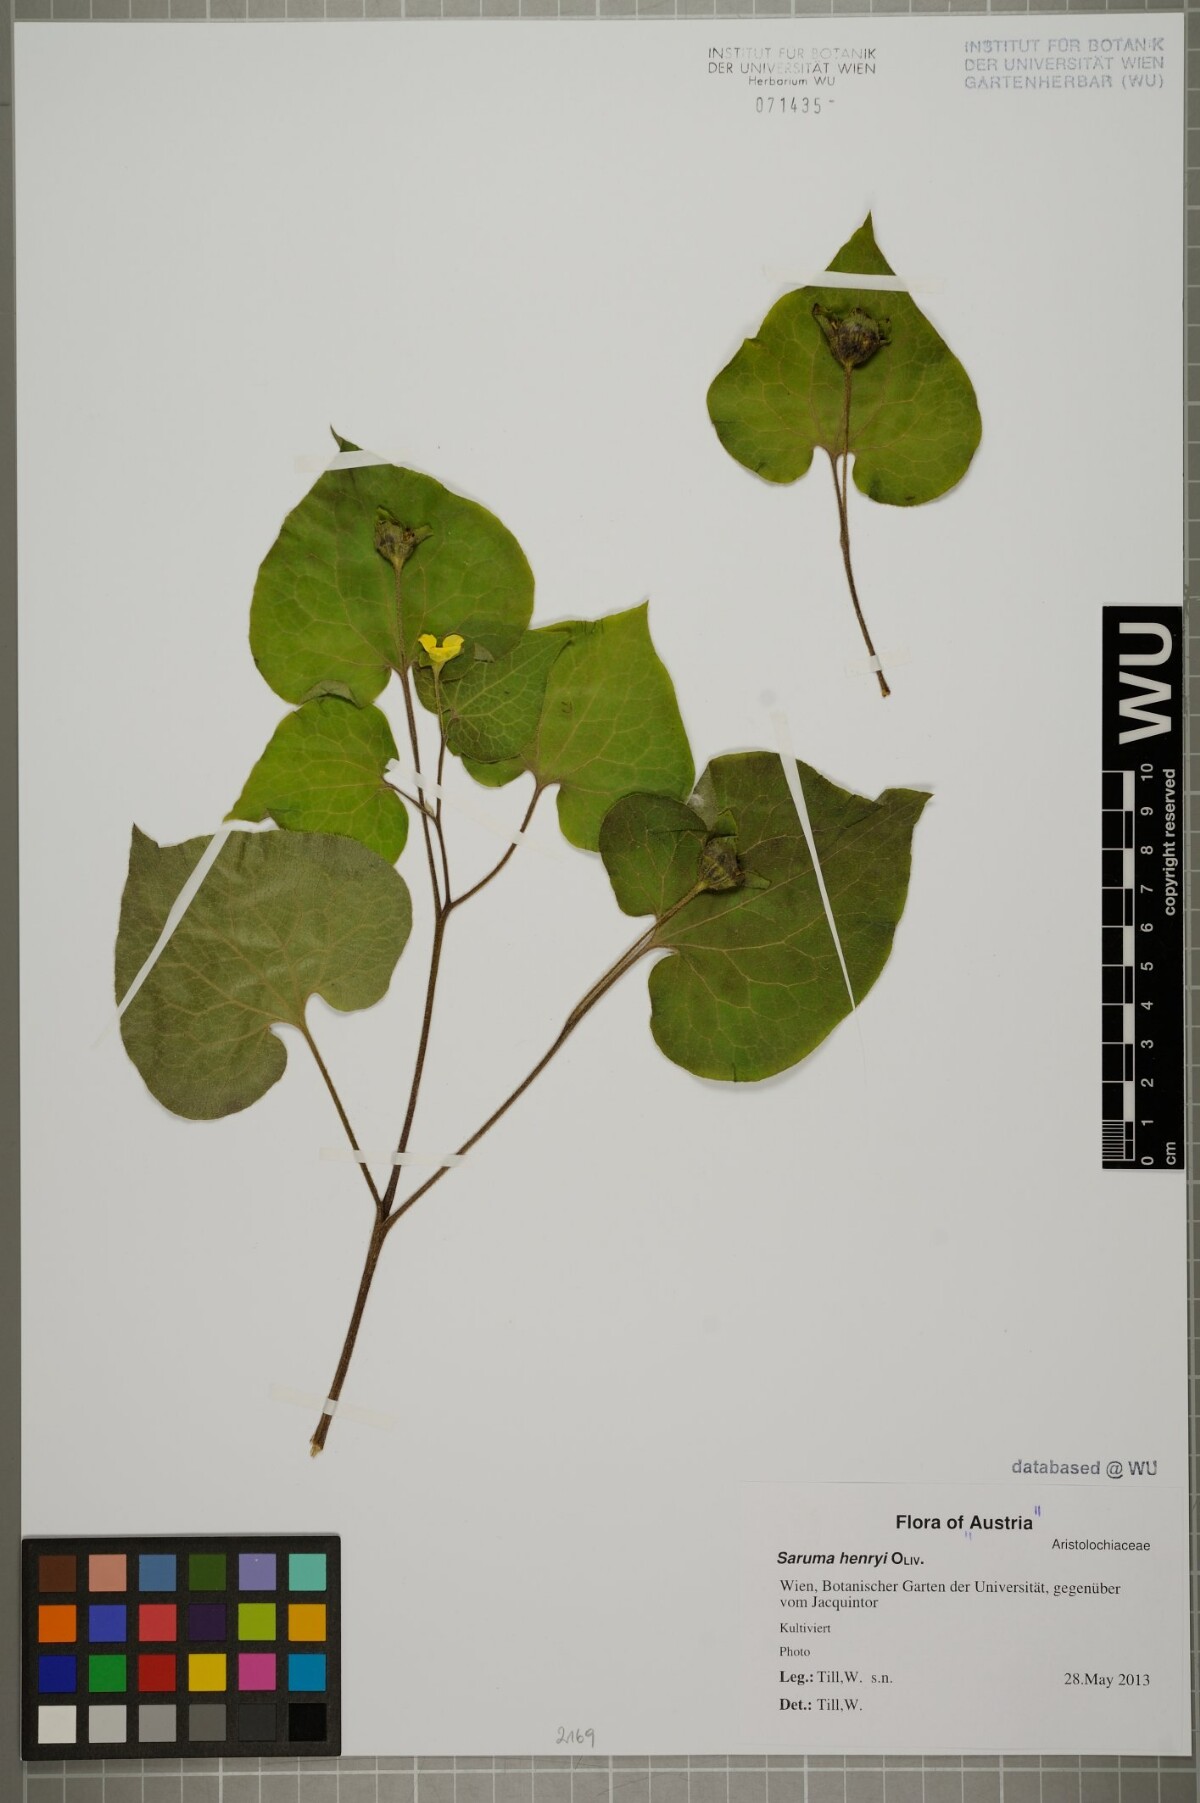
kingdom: Plantae
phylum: Tracheophyta
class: Magnoliopsida
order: Piperales
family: Aristolochiaceae
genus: Saruma
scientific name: Saruma henryi
